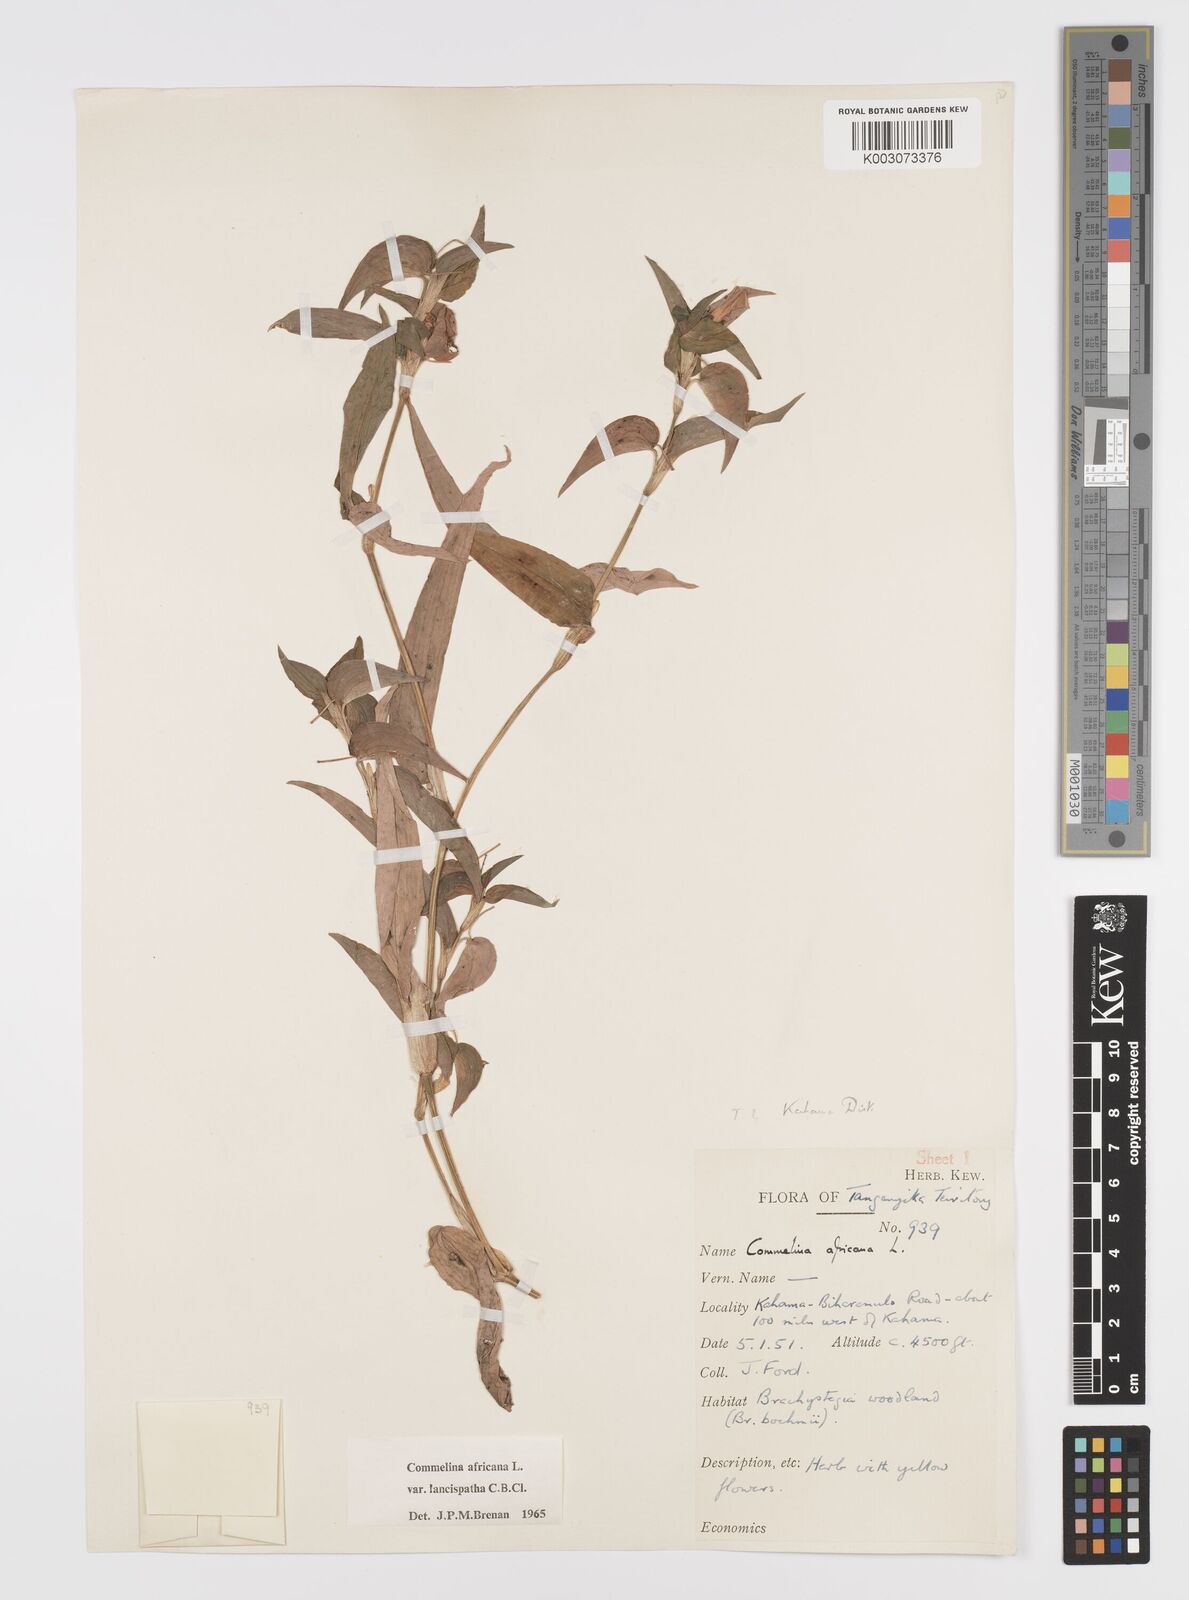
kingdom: Plantae
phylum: Tracheophyta
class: Liliopsida
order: Commelinales
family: Commelinaceae
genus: Commelina
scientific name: Commelina africana
